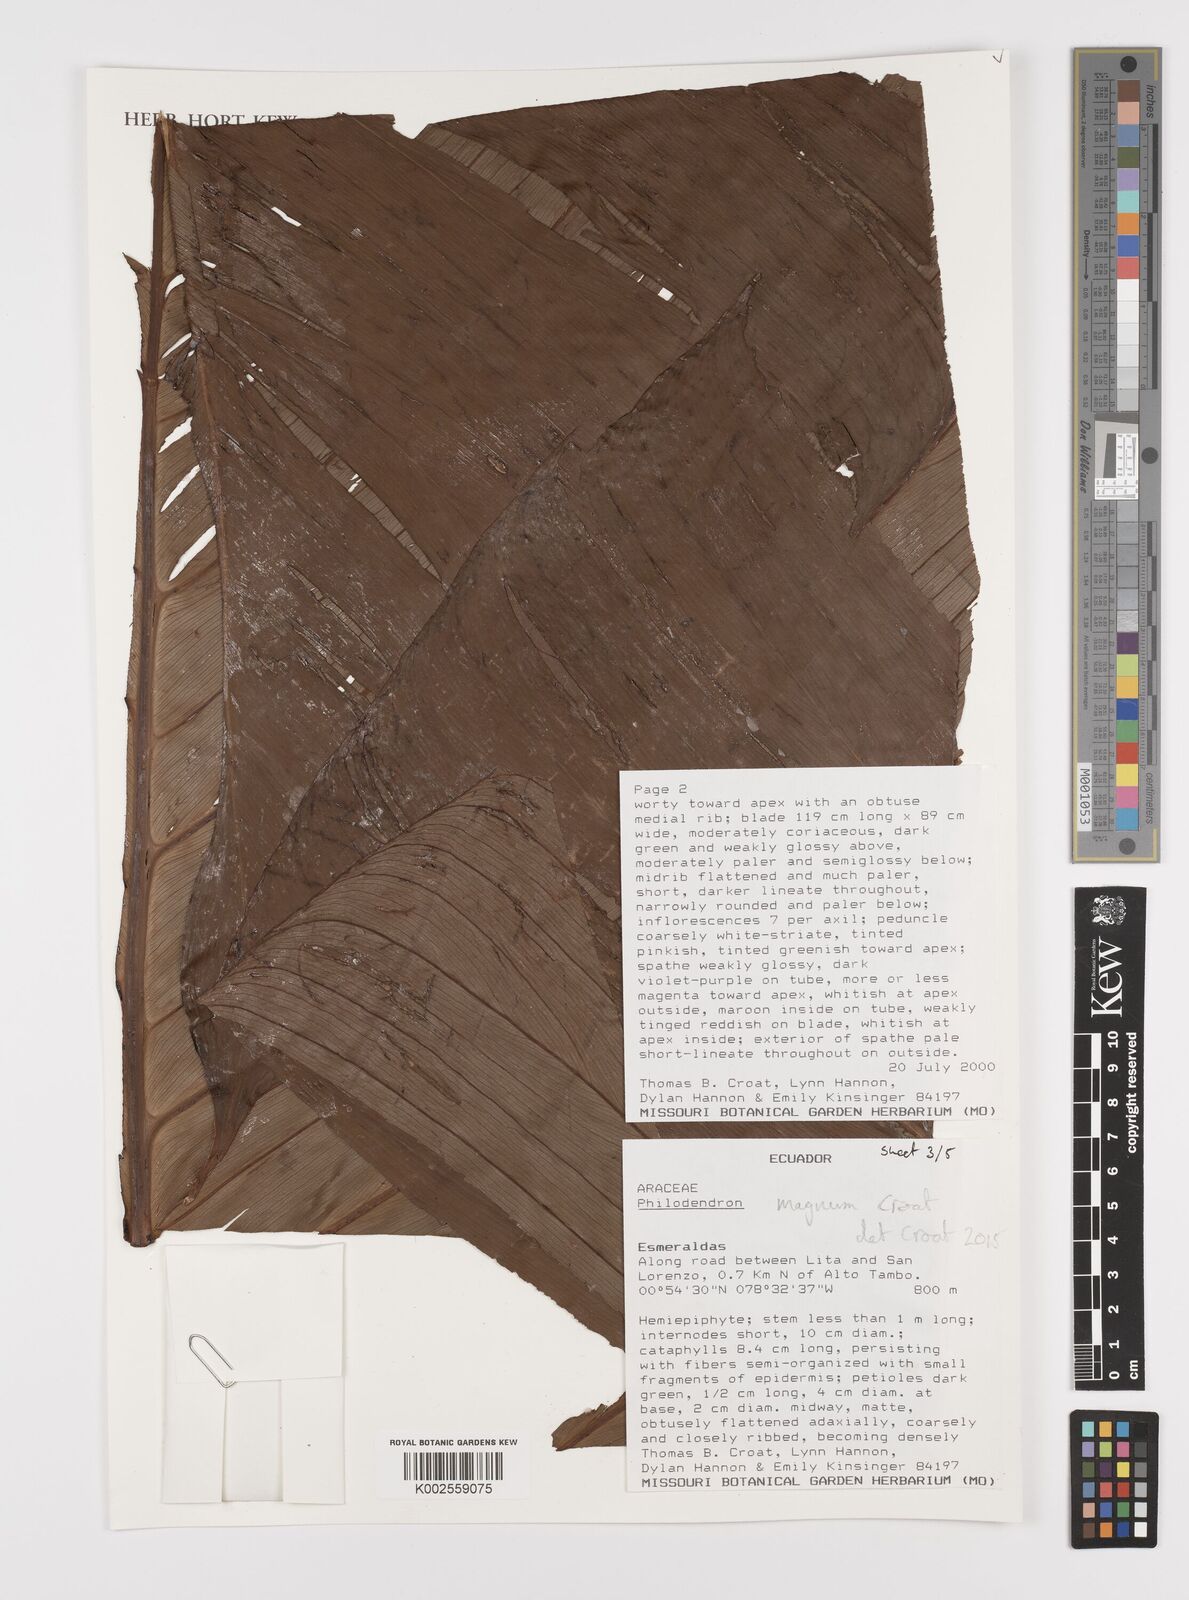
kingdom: Plantae
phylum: Tracheophyta
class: Liliopsida
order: Alismatales
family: Araceae
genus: Philodendron
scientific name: Philodendron magnum
